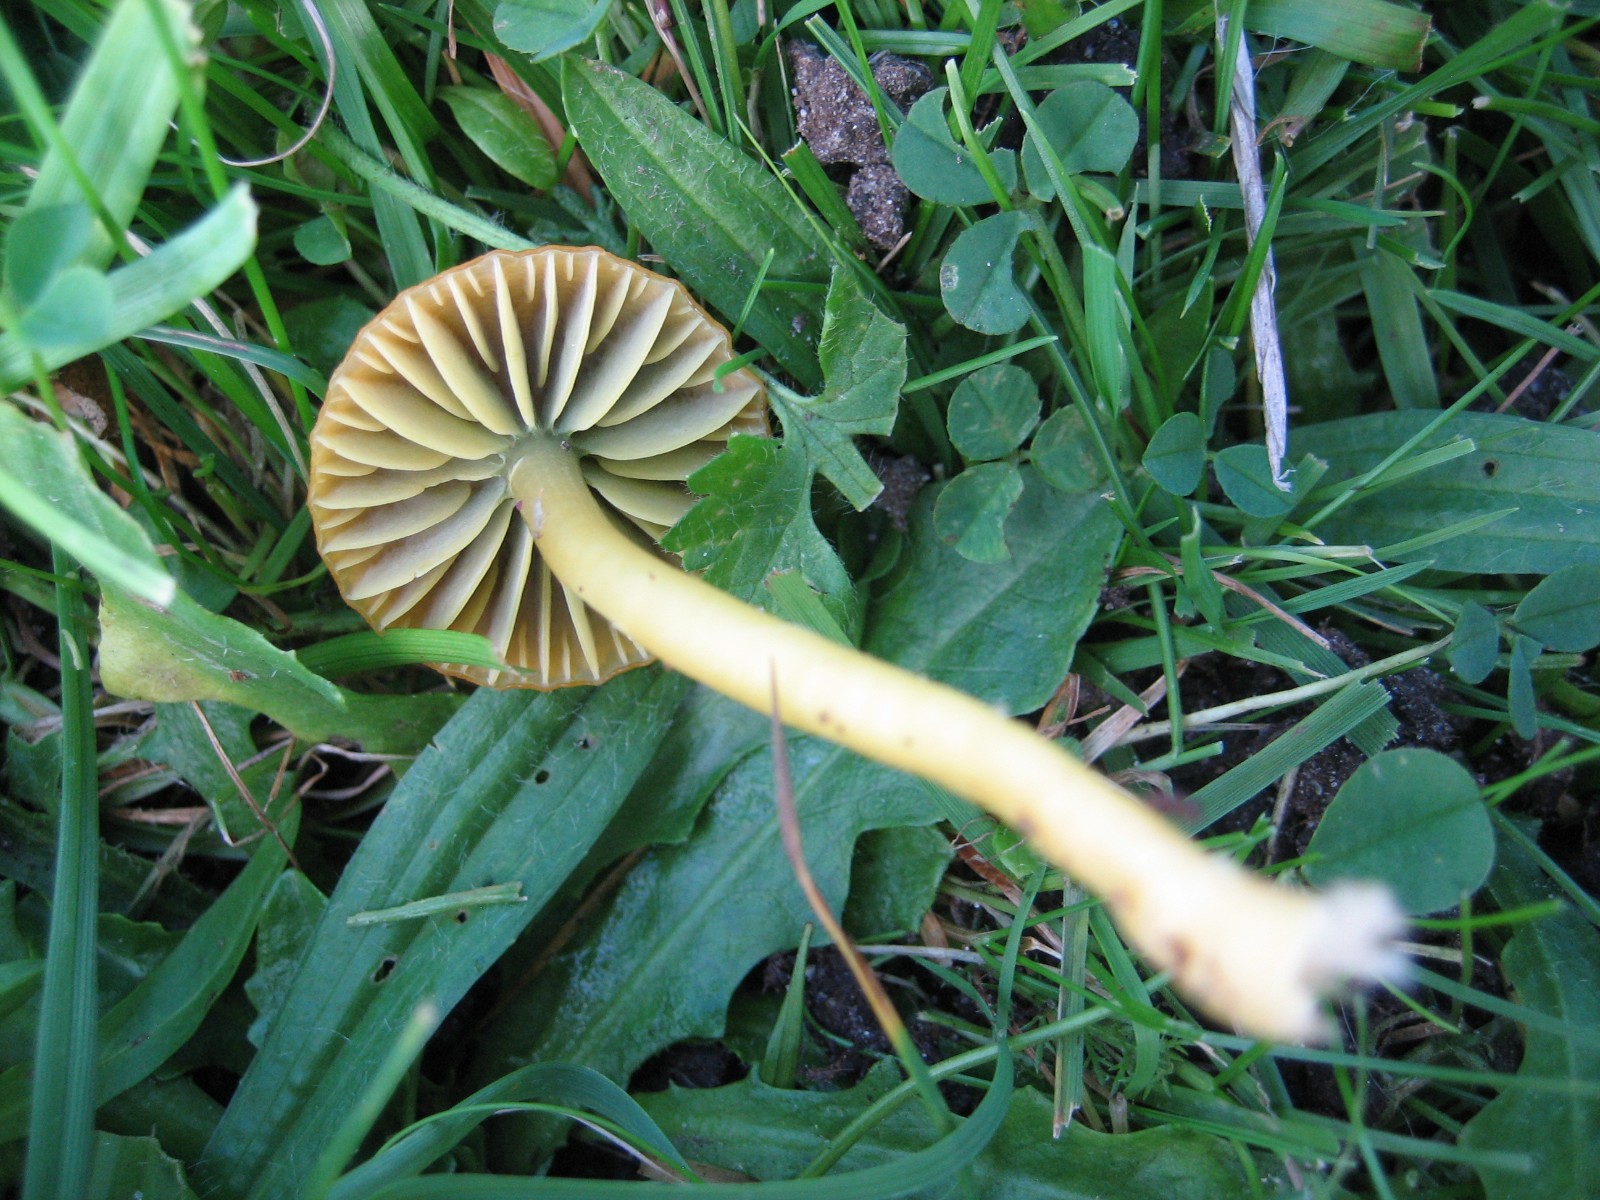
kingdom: Fungi
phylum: Basidiomycota
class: Agaricomycetes
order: Agaricales
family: Hygrophoraceae
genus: Gliophorus
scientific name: Gliophorus psittacinus
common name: papegøje-vokshat
